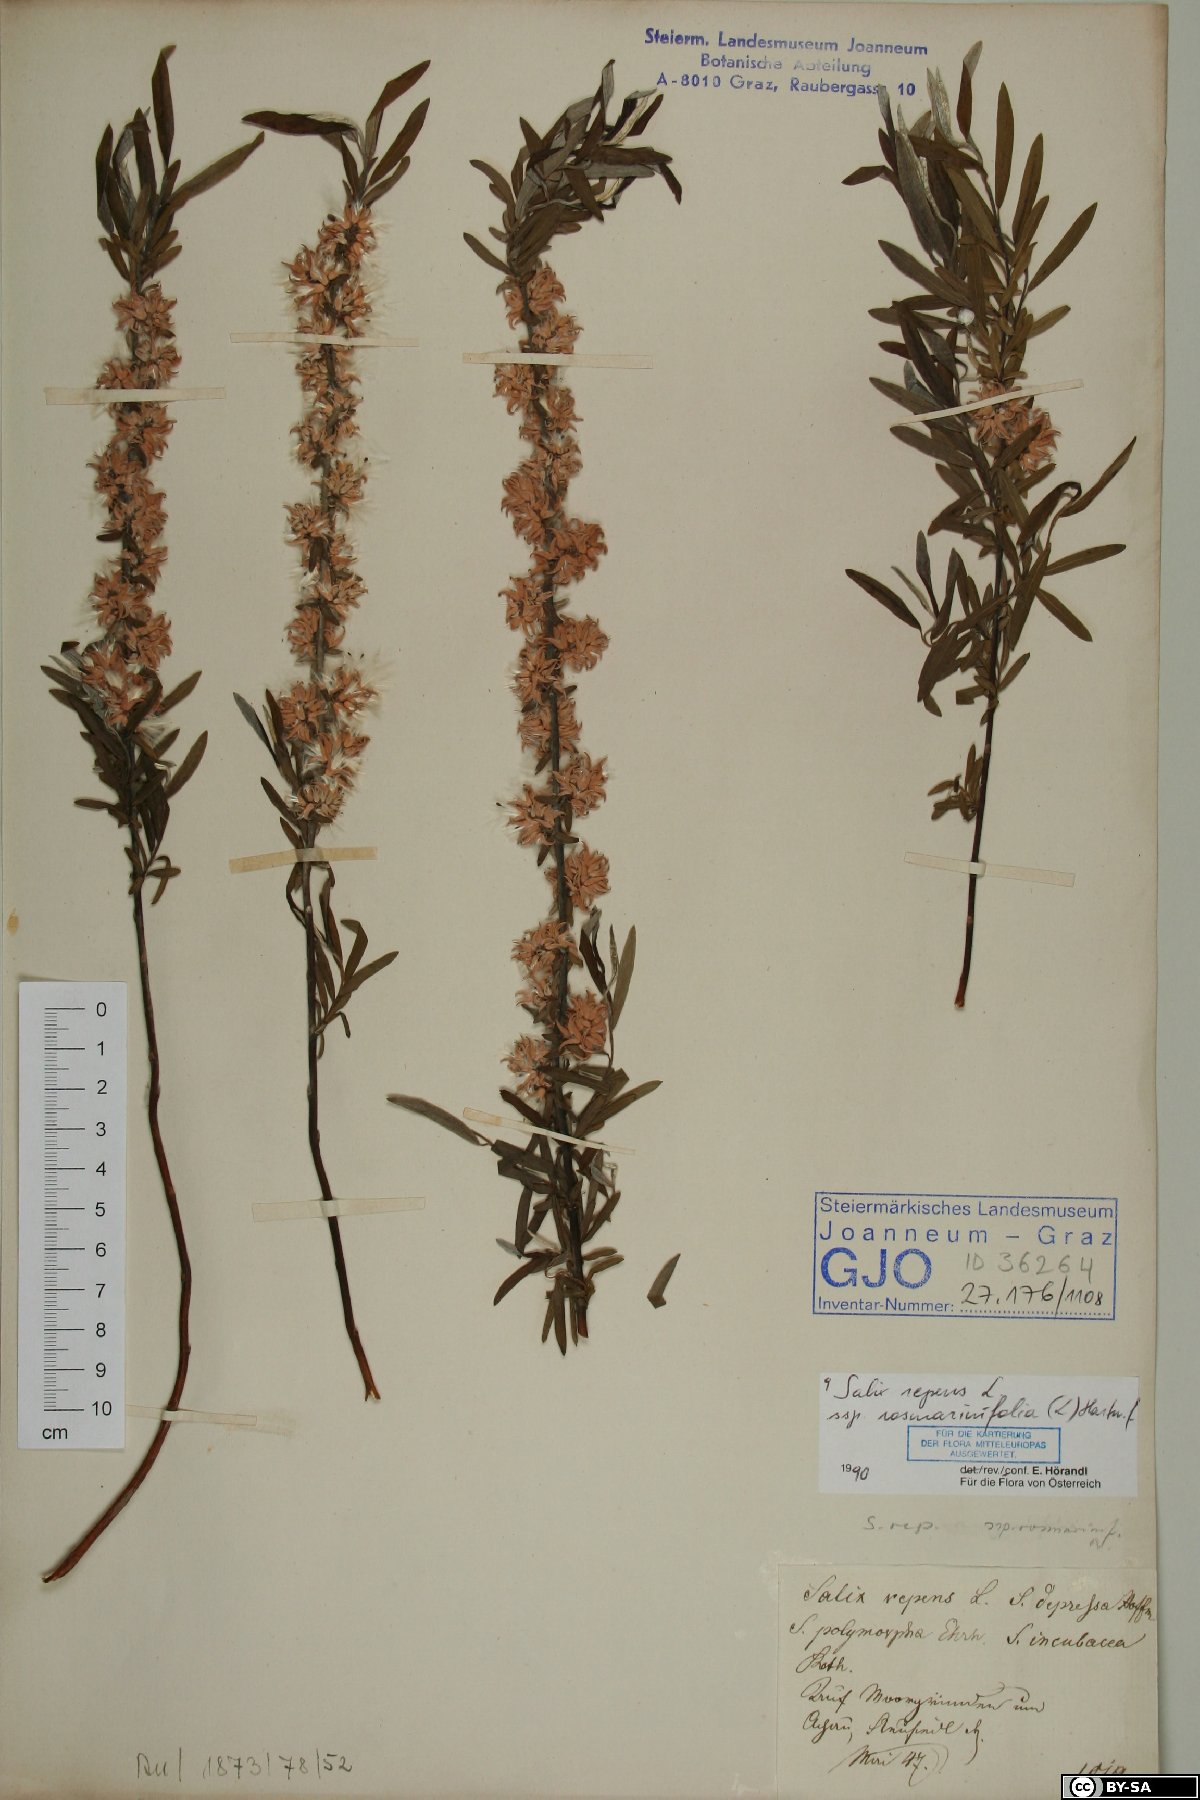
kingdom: Plantae
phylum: Tracheophyta
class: Magnoliopsida
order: Malpighiales
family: Salicaceae
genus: Salix
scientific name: Salix repens
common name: Creeping willow
